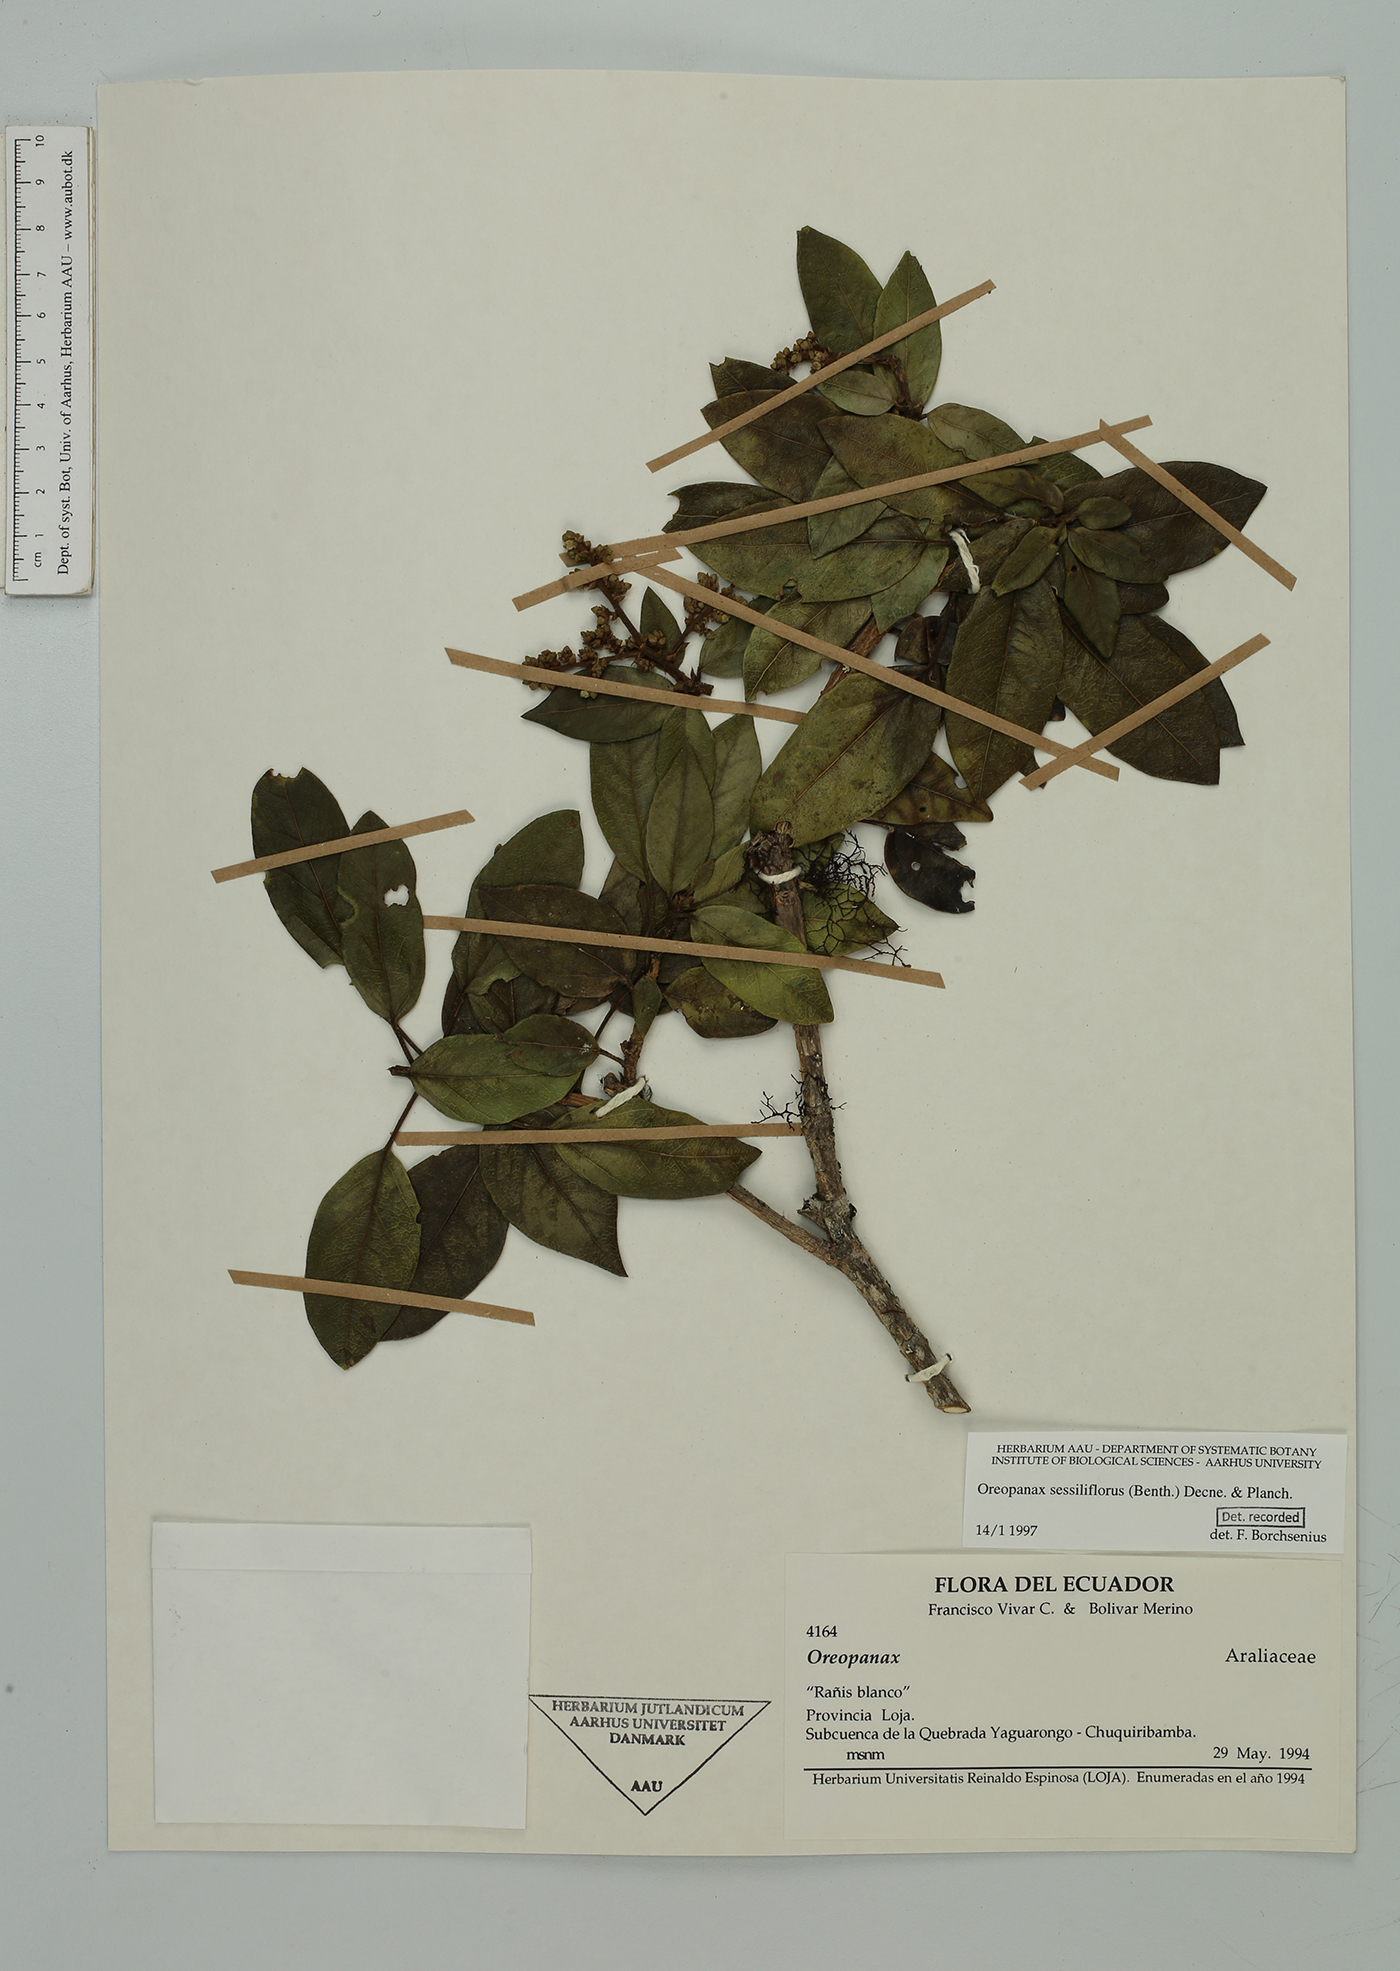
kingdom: Plantae
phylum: Tracheophyta
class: Magnoliopsida
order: Apiales
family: Araliaceae
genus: Oreopanax
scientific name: Oreopanax sessiliflorus
